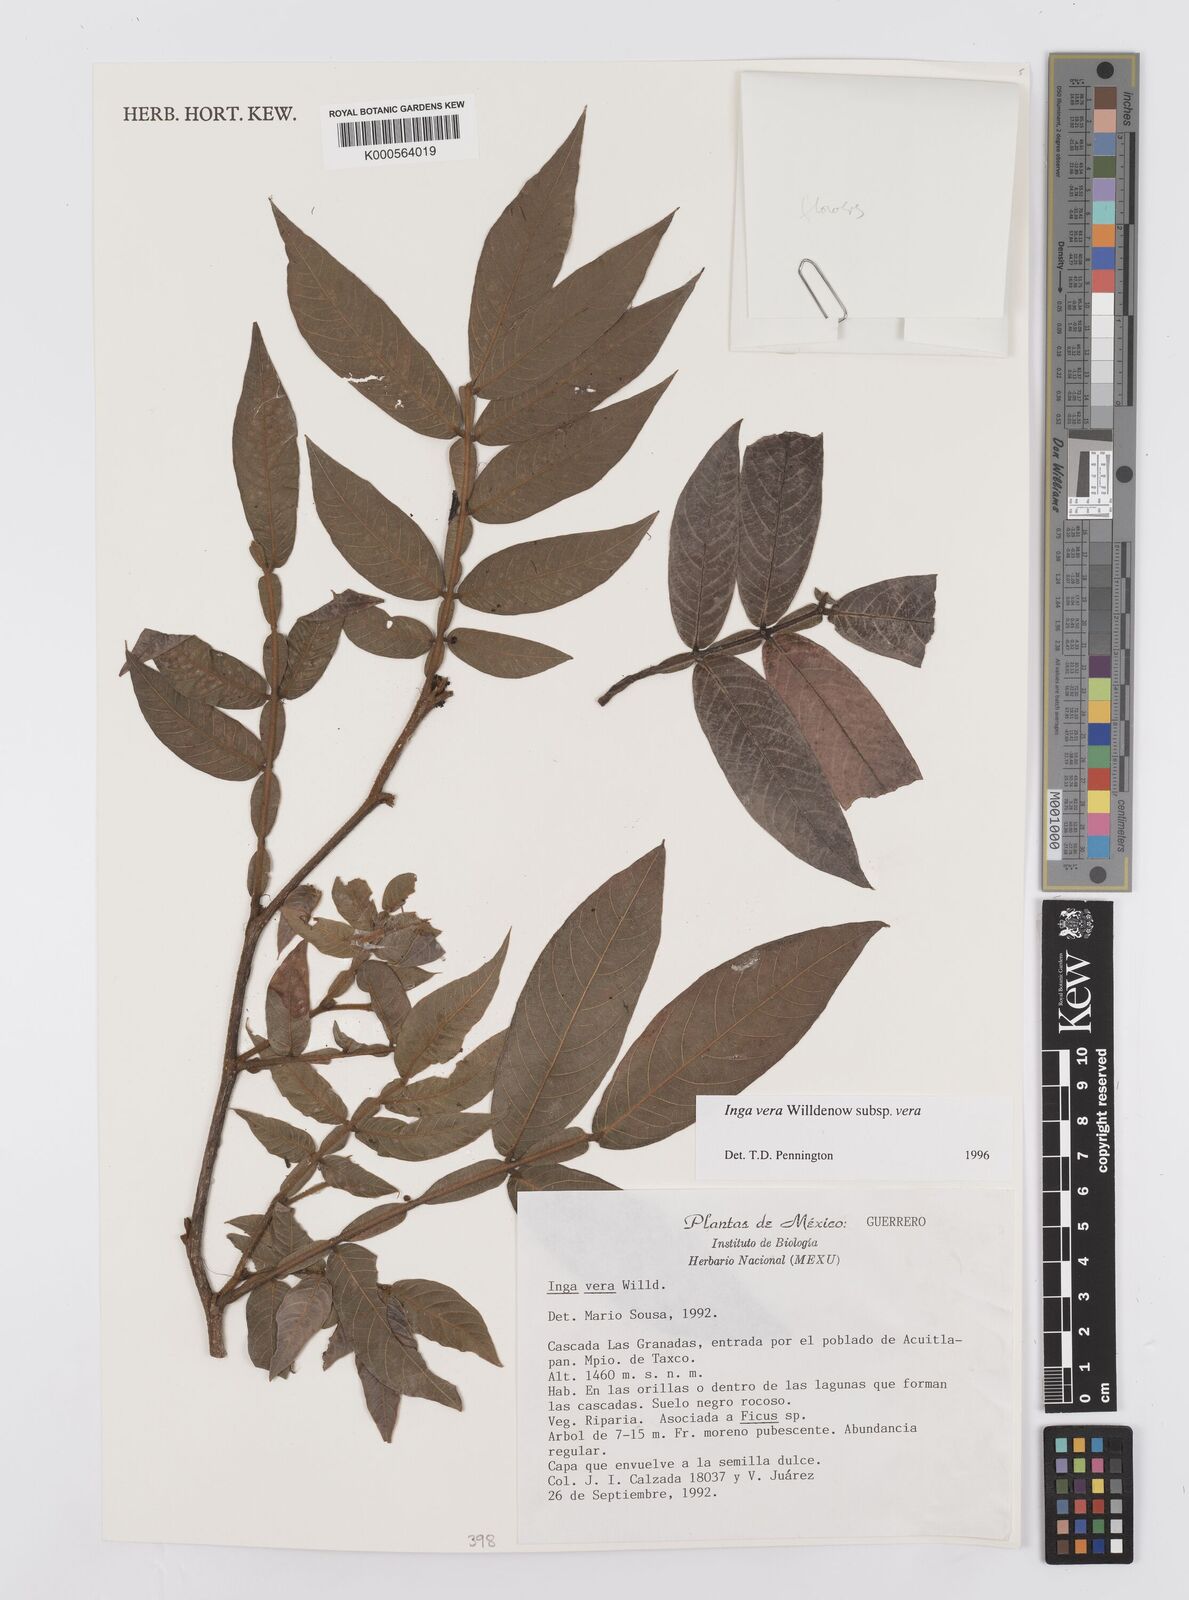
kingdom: Plantae
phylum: Tracheophyta
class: Magnoliopsida
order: Fabales
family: Fabaceae
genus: Inga
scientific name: Inga vera
